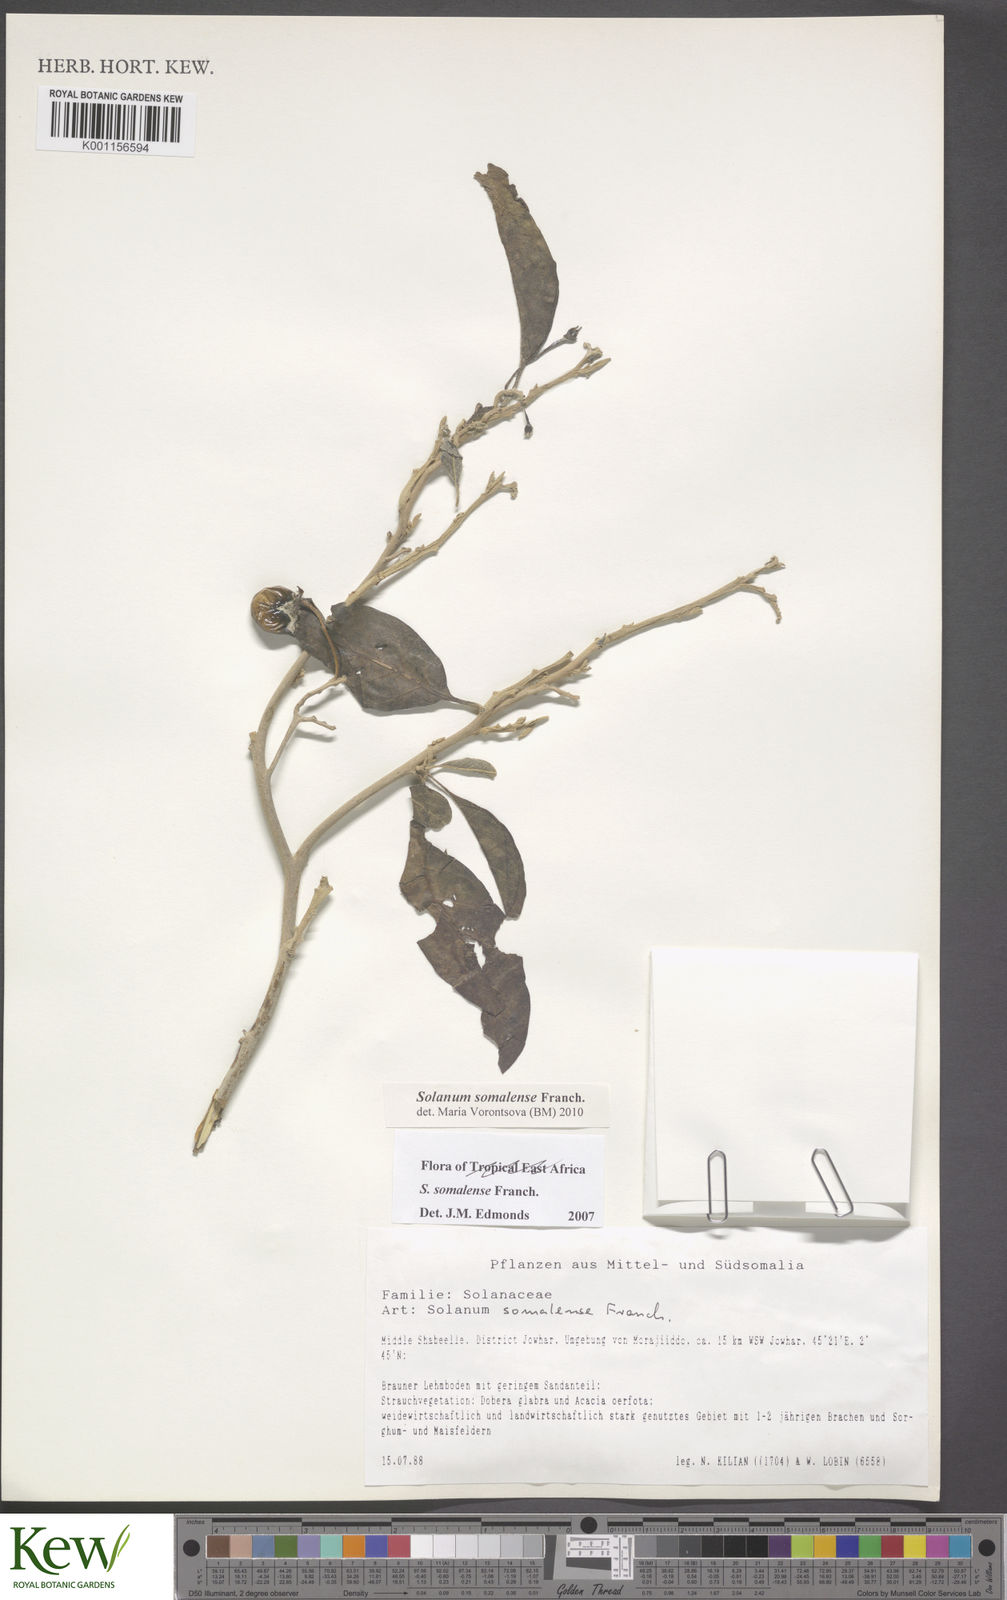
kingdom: Plantae
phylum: Tracheophyta
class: Magnoliopsida
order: Solanales
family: Solanaceae
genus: Solanum
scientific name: Solanum somalense
